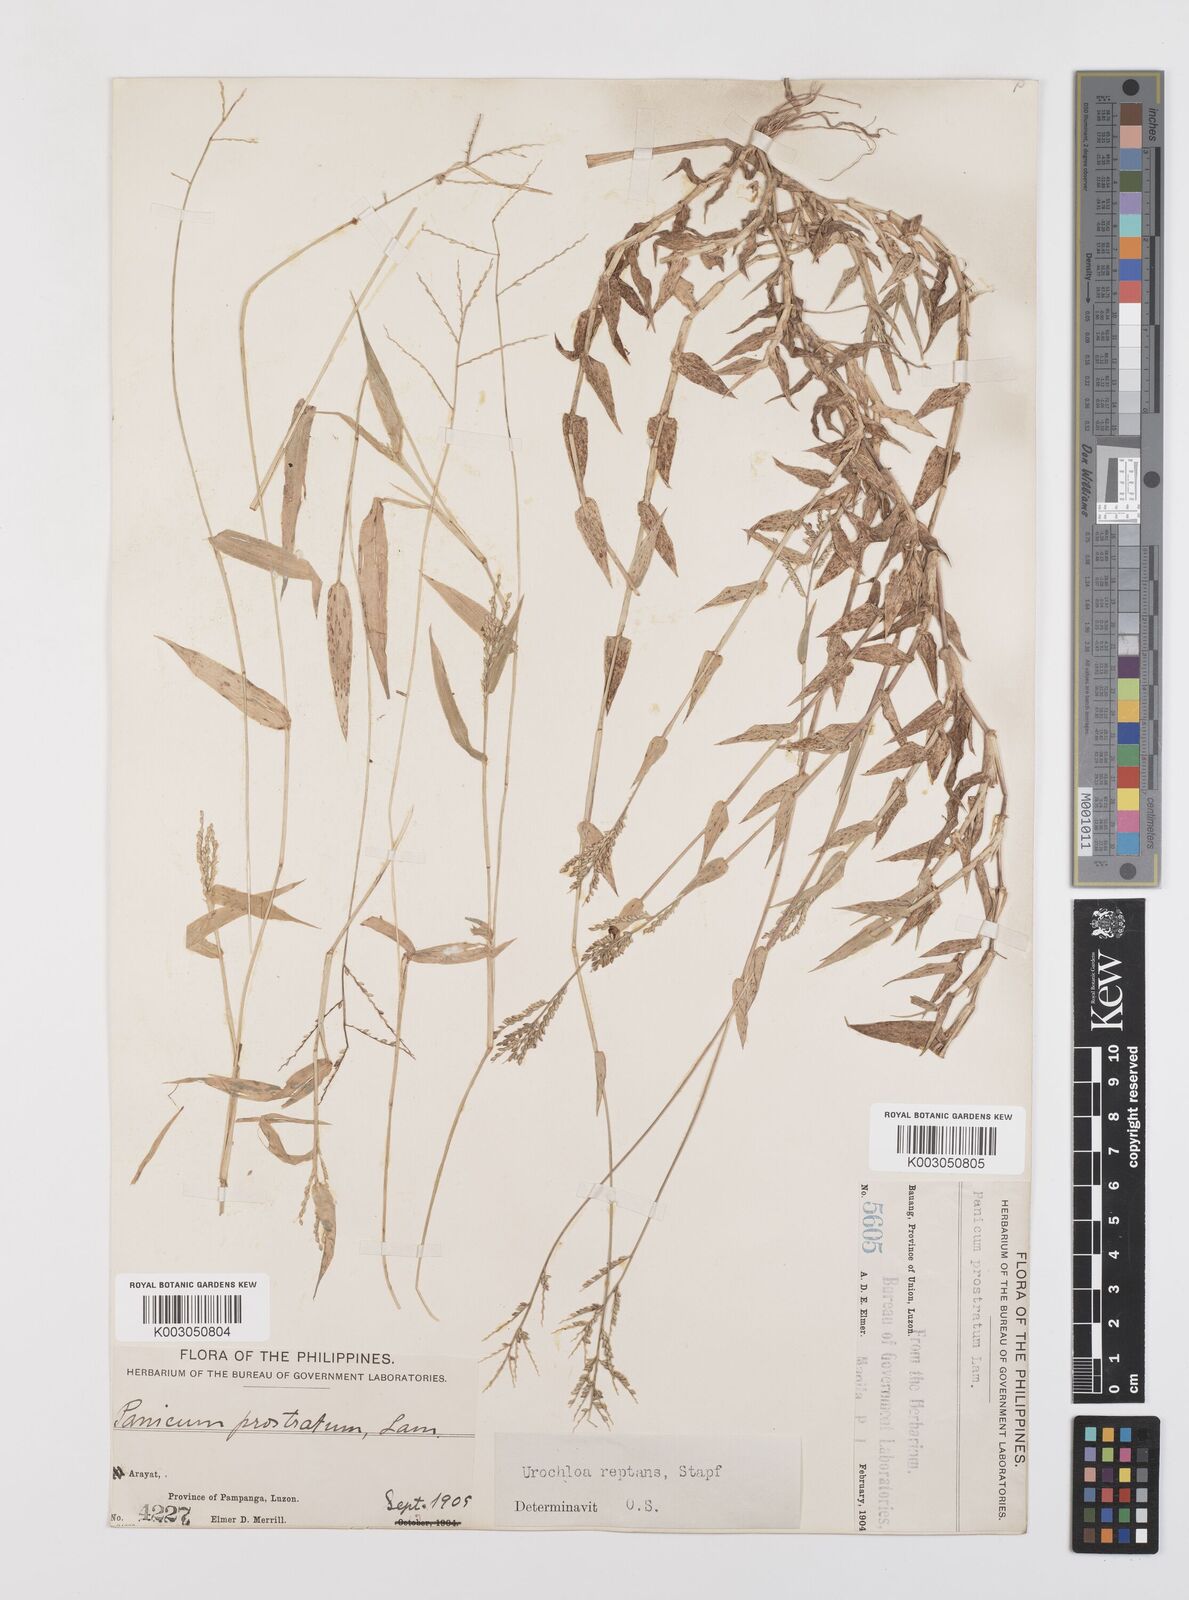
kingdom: Plantae
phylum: Tracheophyta
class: Liliopsida
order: Poales
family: Poaceae
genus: Urochloa
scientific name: Urochloa reptans
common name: Sprawling signalgrass
